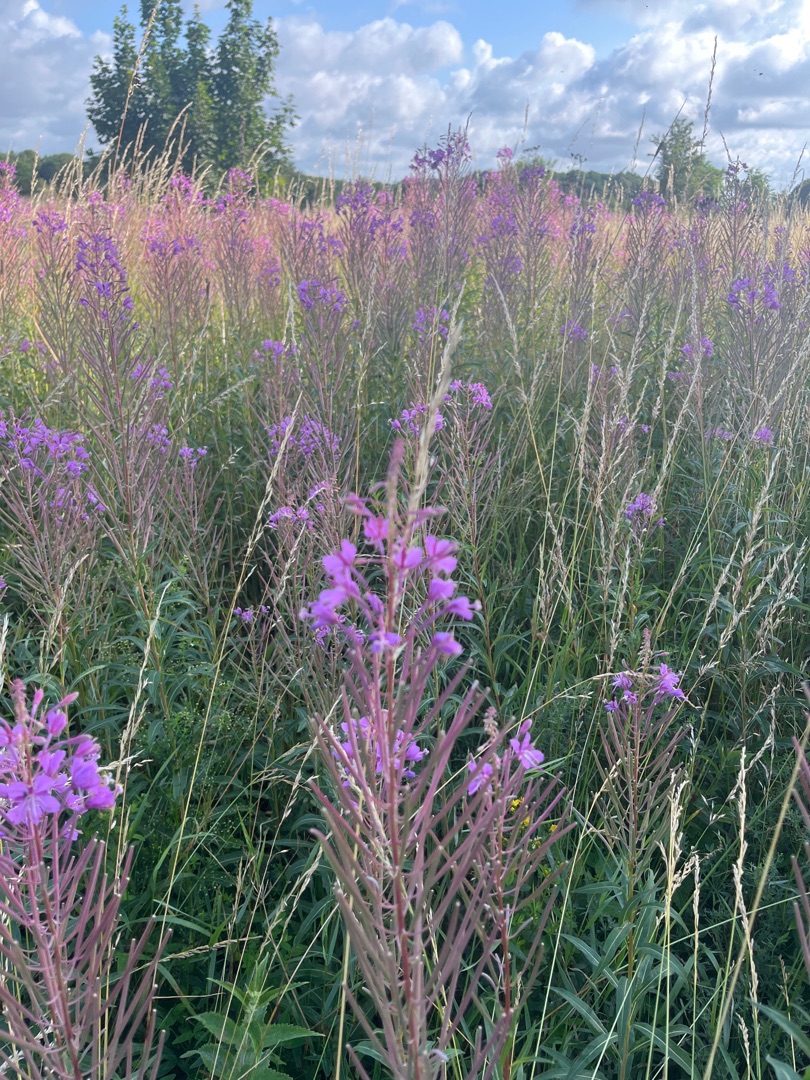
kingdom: Plantae
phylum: Tracheophyta
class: Magnoliopsida
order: Myrtales
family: Onagraceae
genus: Chamaenerion
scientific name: Chamaenerion angustifolium
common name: Gederams
